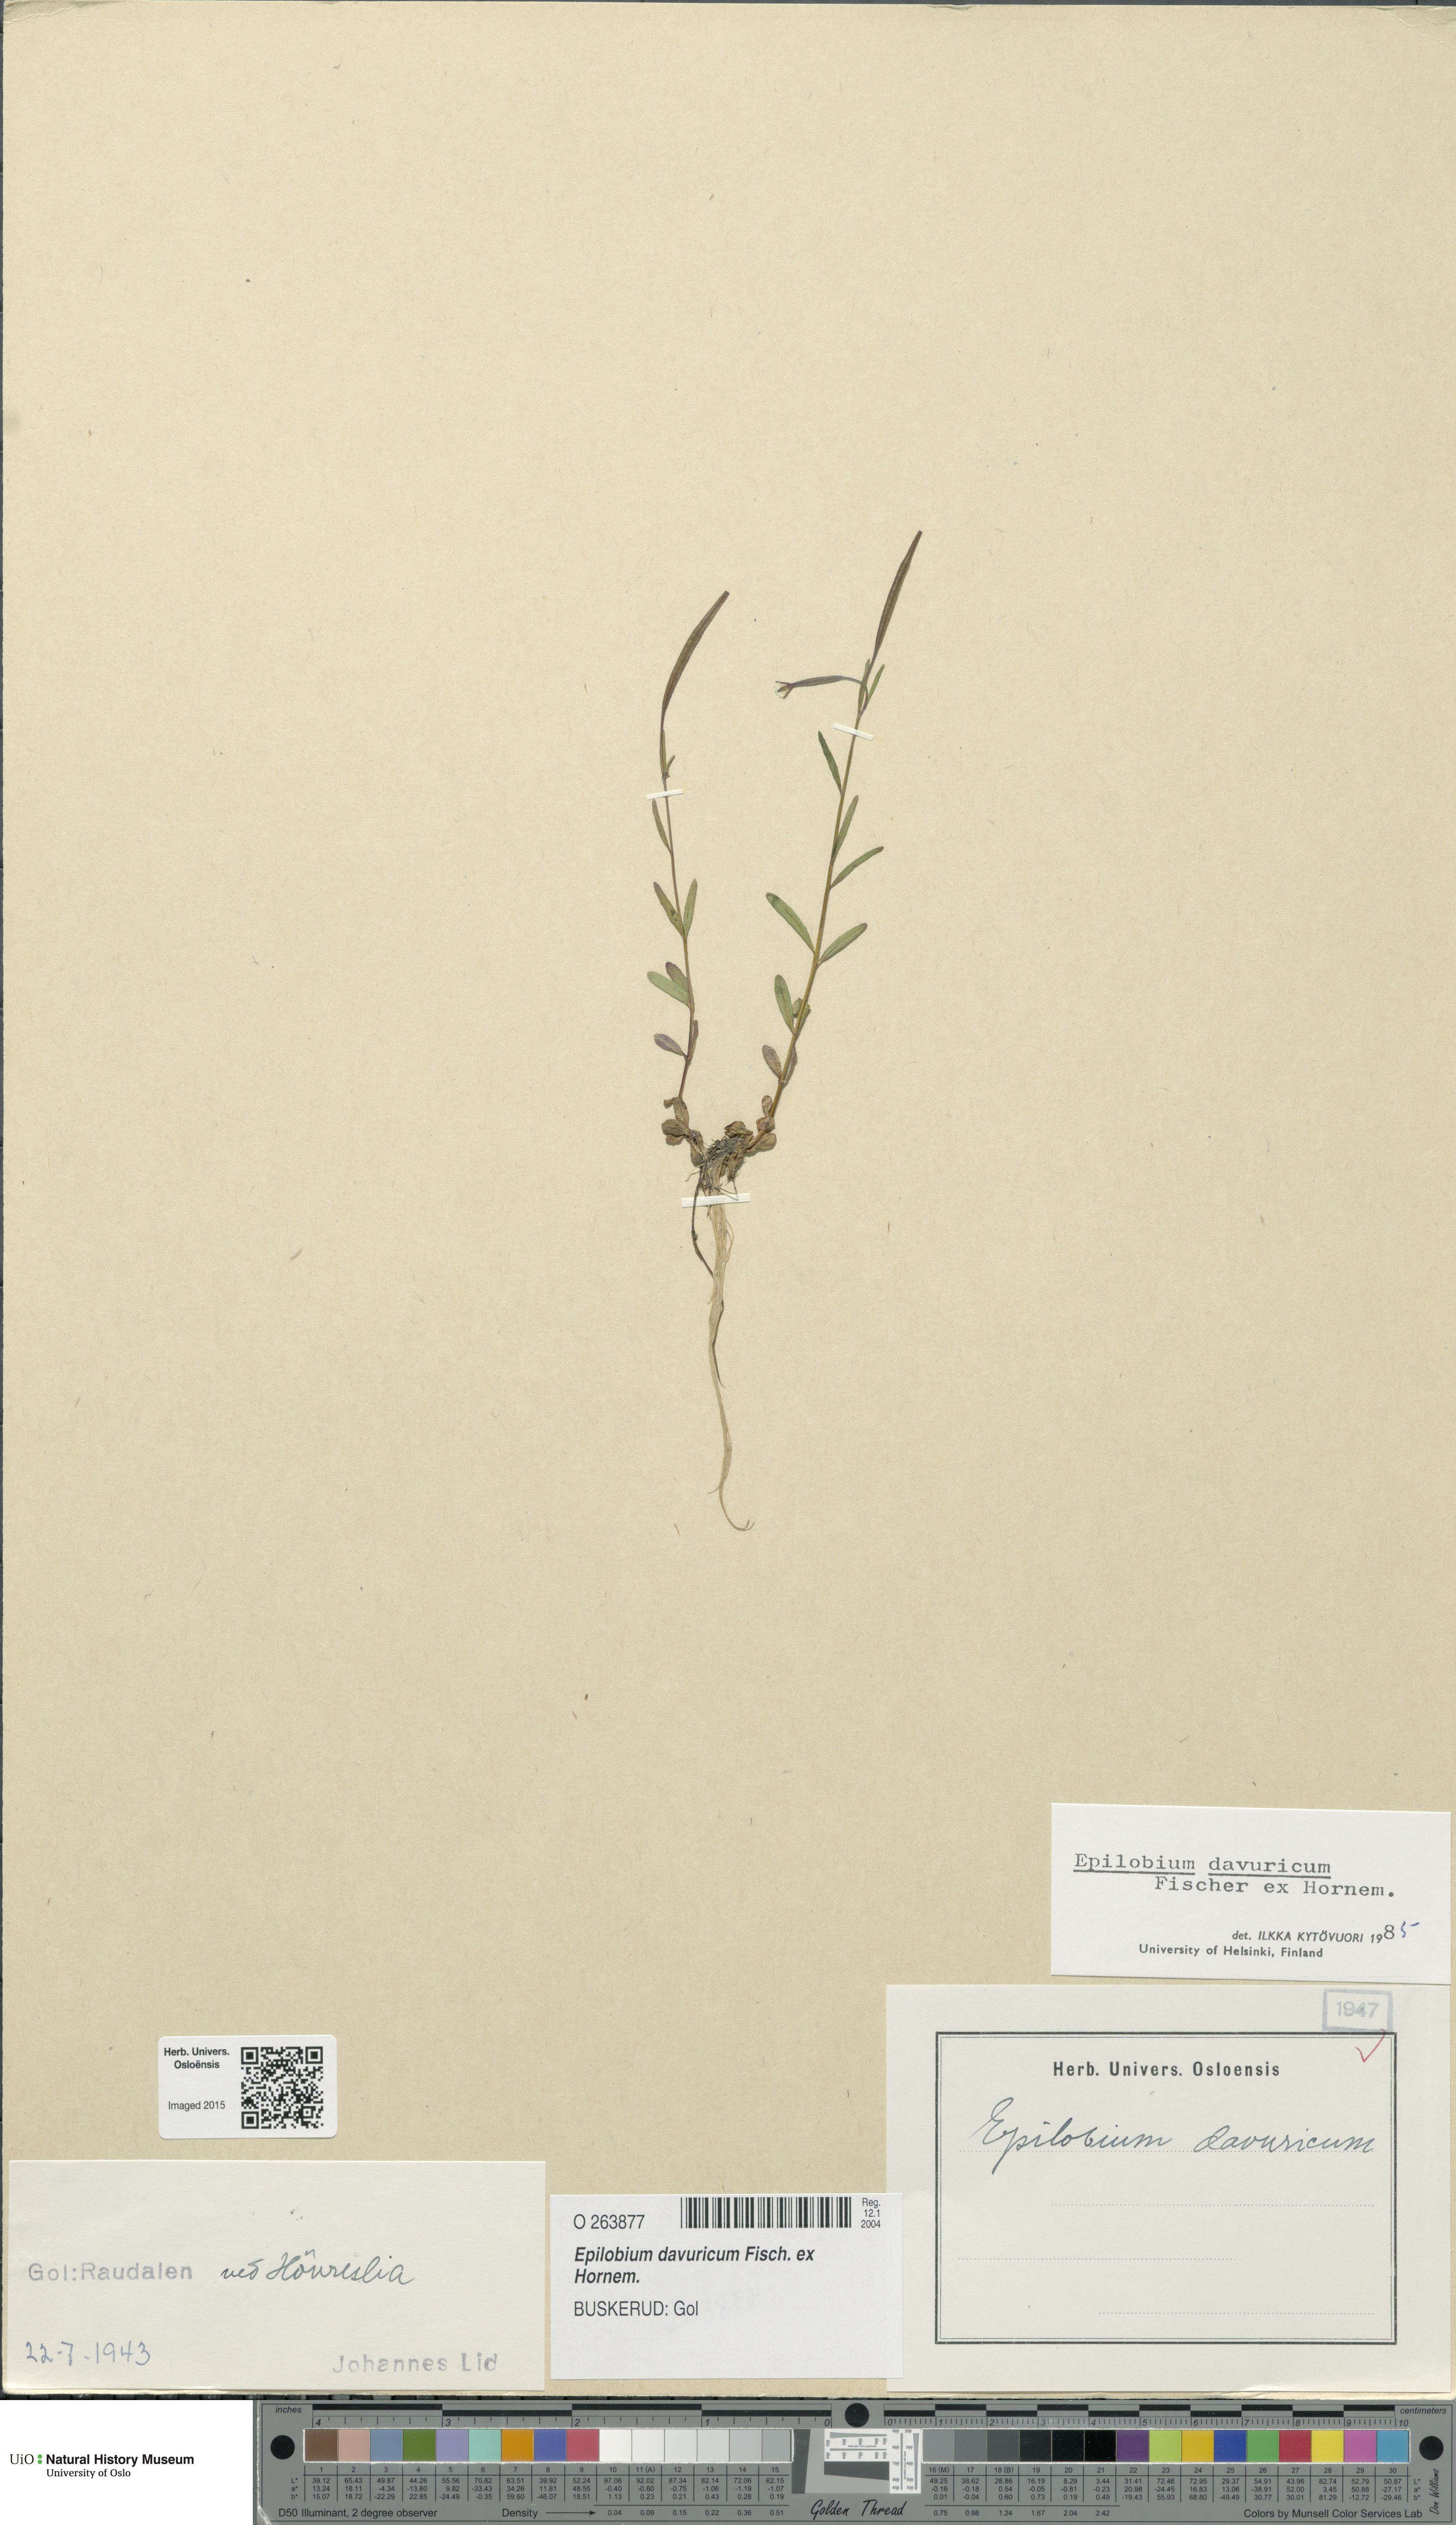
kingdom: Plantae
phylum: Tracheophyta
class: Magnoliopsida
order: Myrtales
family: Onagraceae
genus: Epilobium
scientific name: Epilobium davuricum
